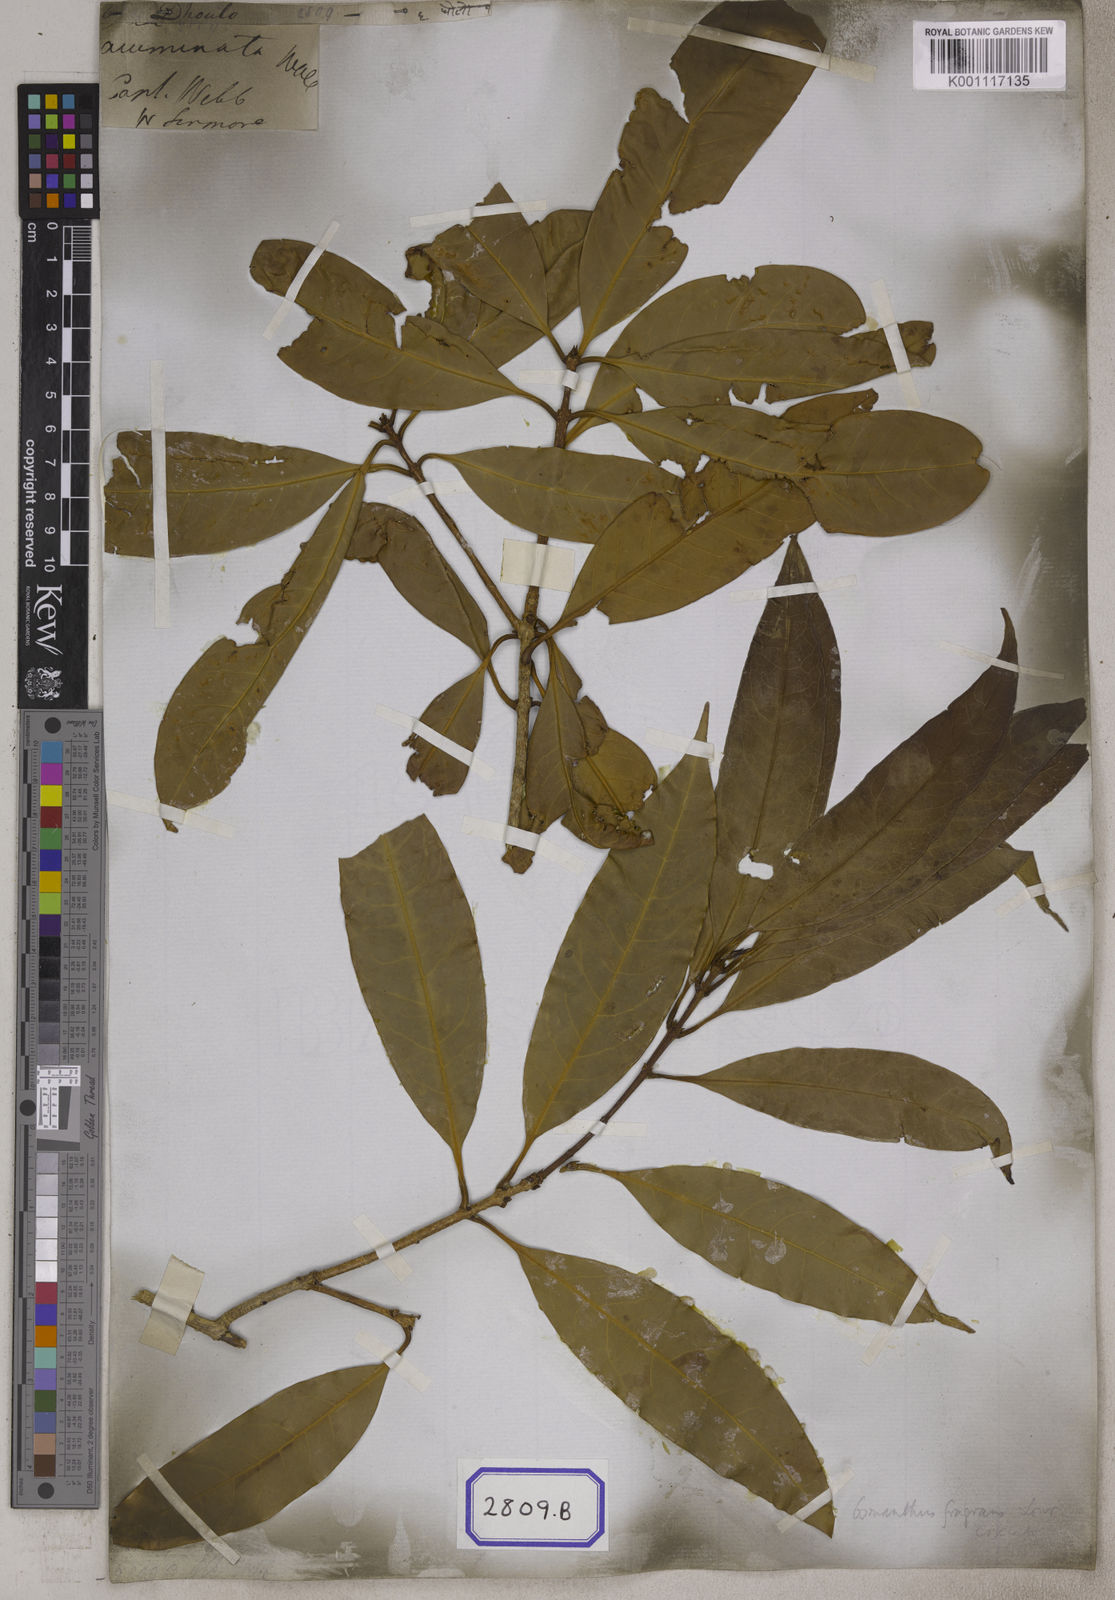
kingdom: Plantae
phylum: Tracheophyta
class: Magnoliopsida
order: Lamiales
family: Oleaceae
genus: Olea
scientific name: Olea
